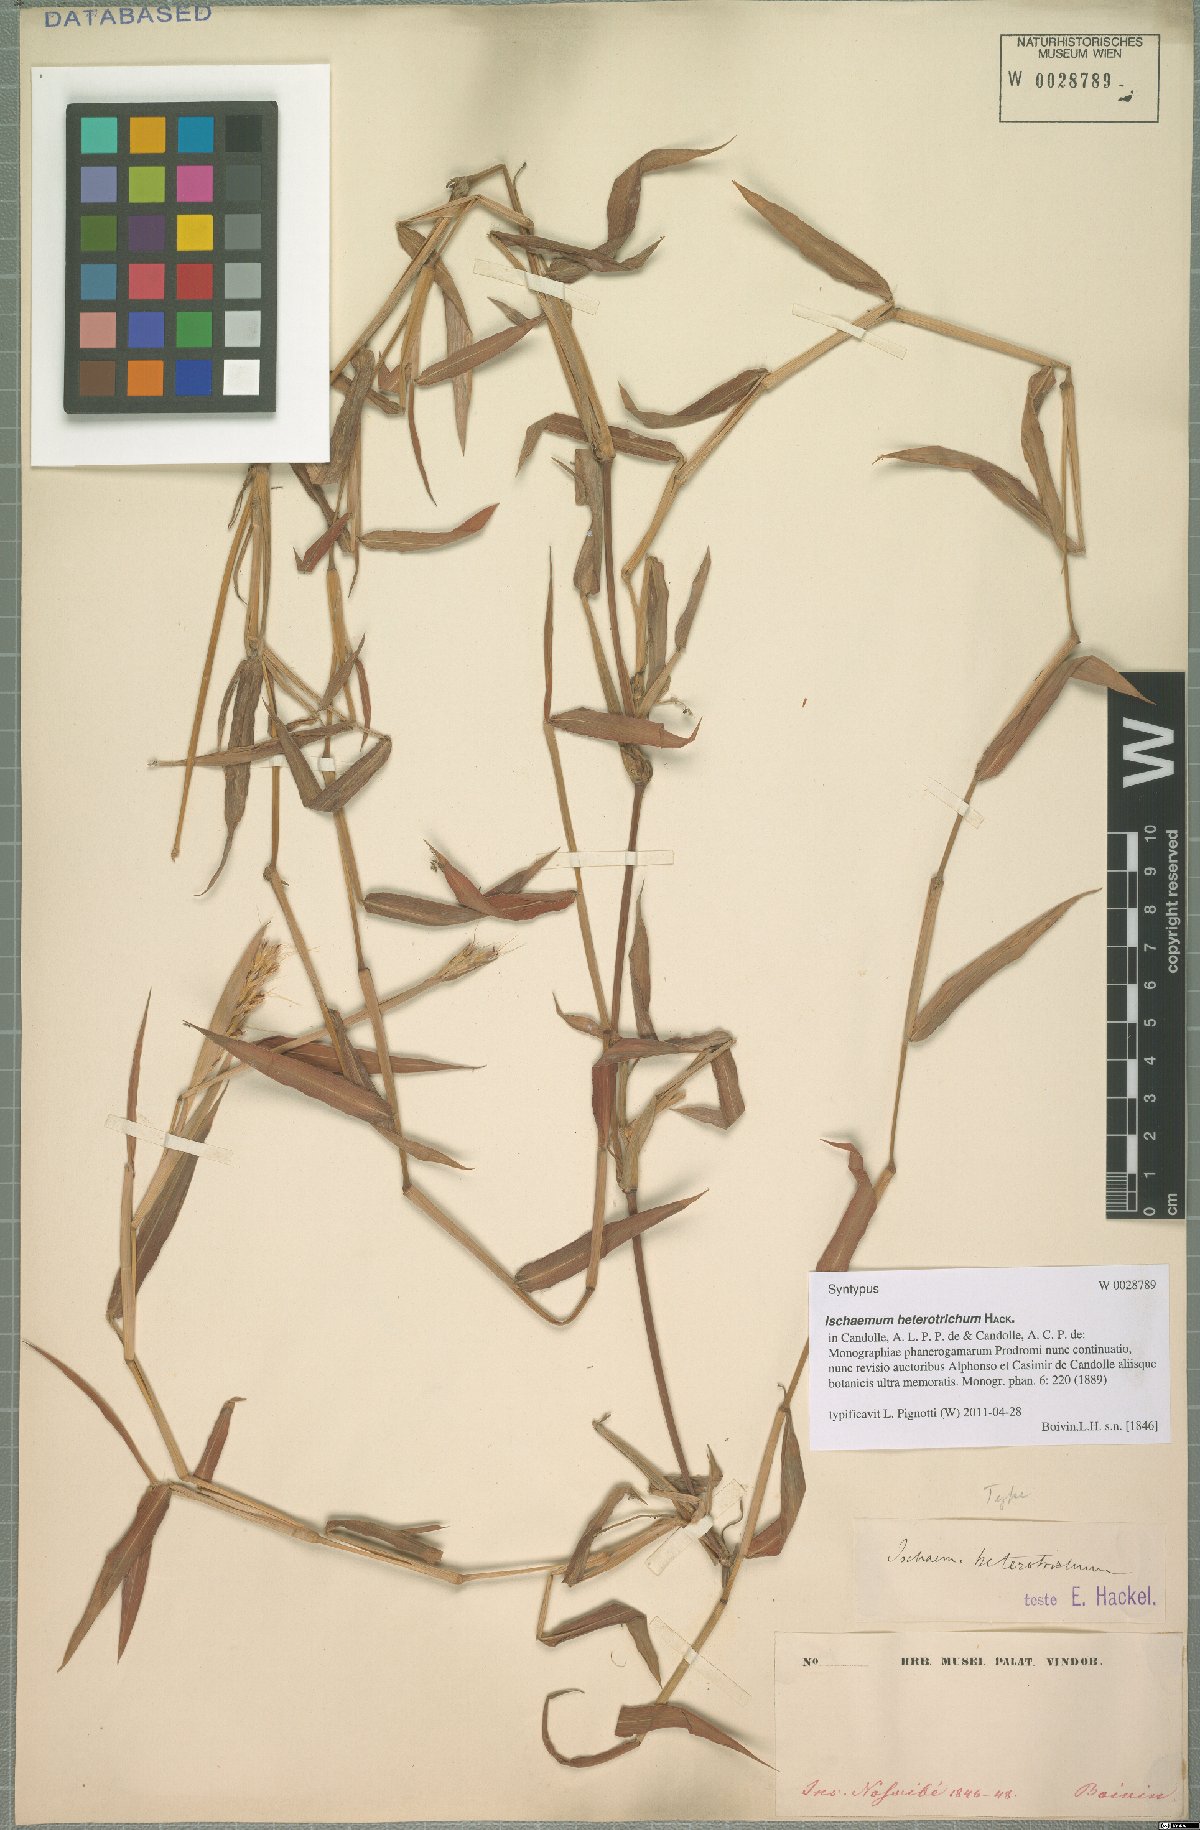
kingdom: Plantae
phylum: Tracheophyta
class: Liliopsida
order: Poales
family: Poaceae
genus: Ischaemum
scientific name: Ischaemum heterotrichum
